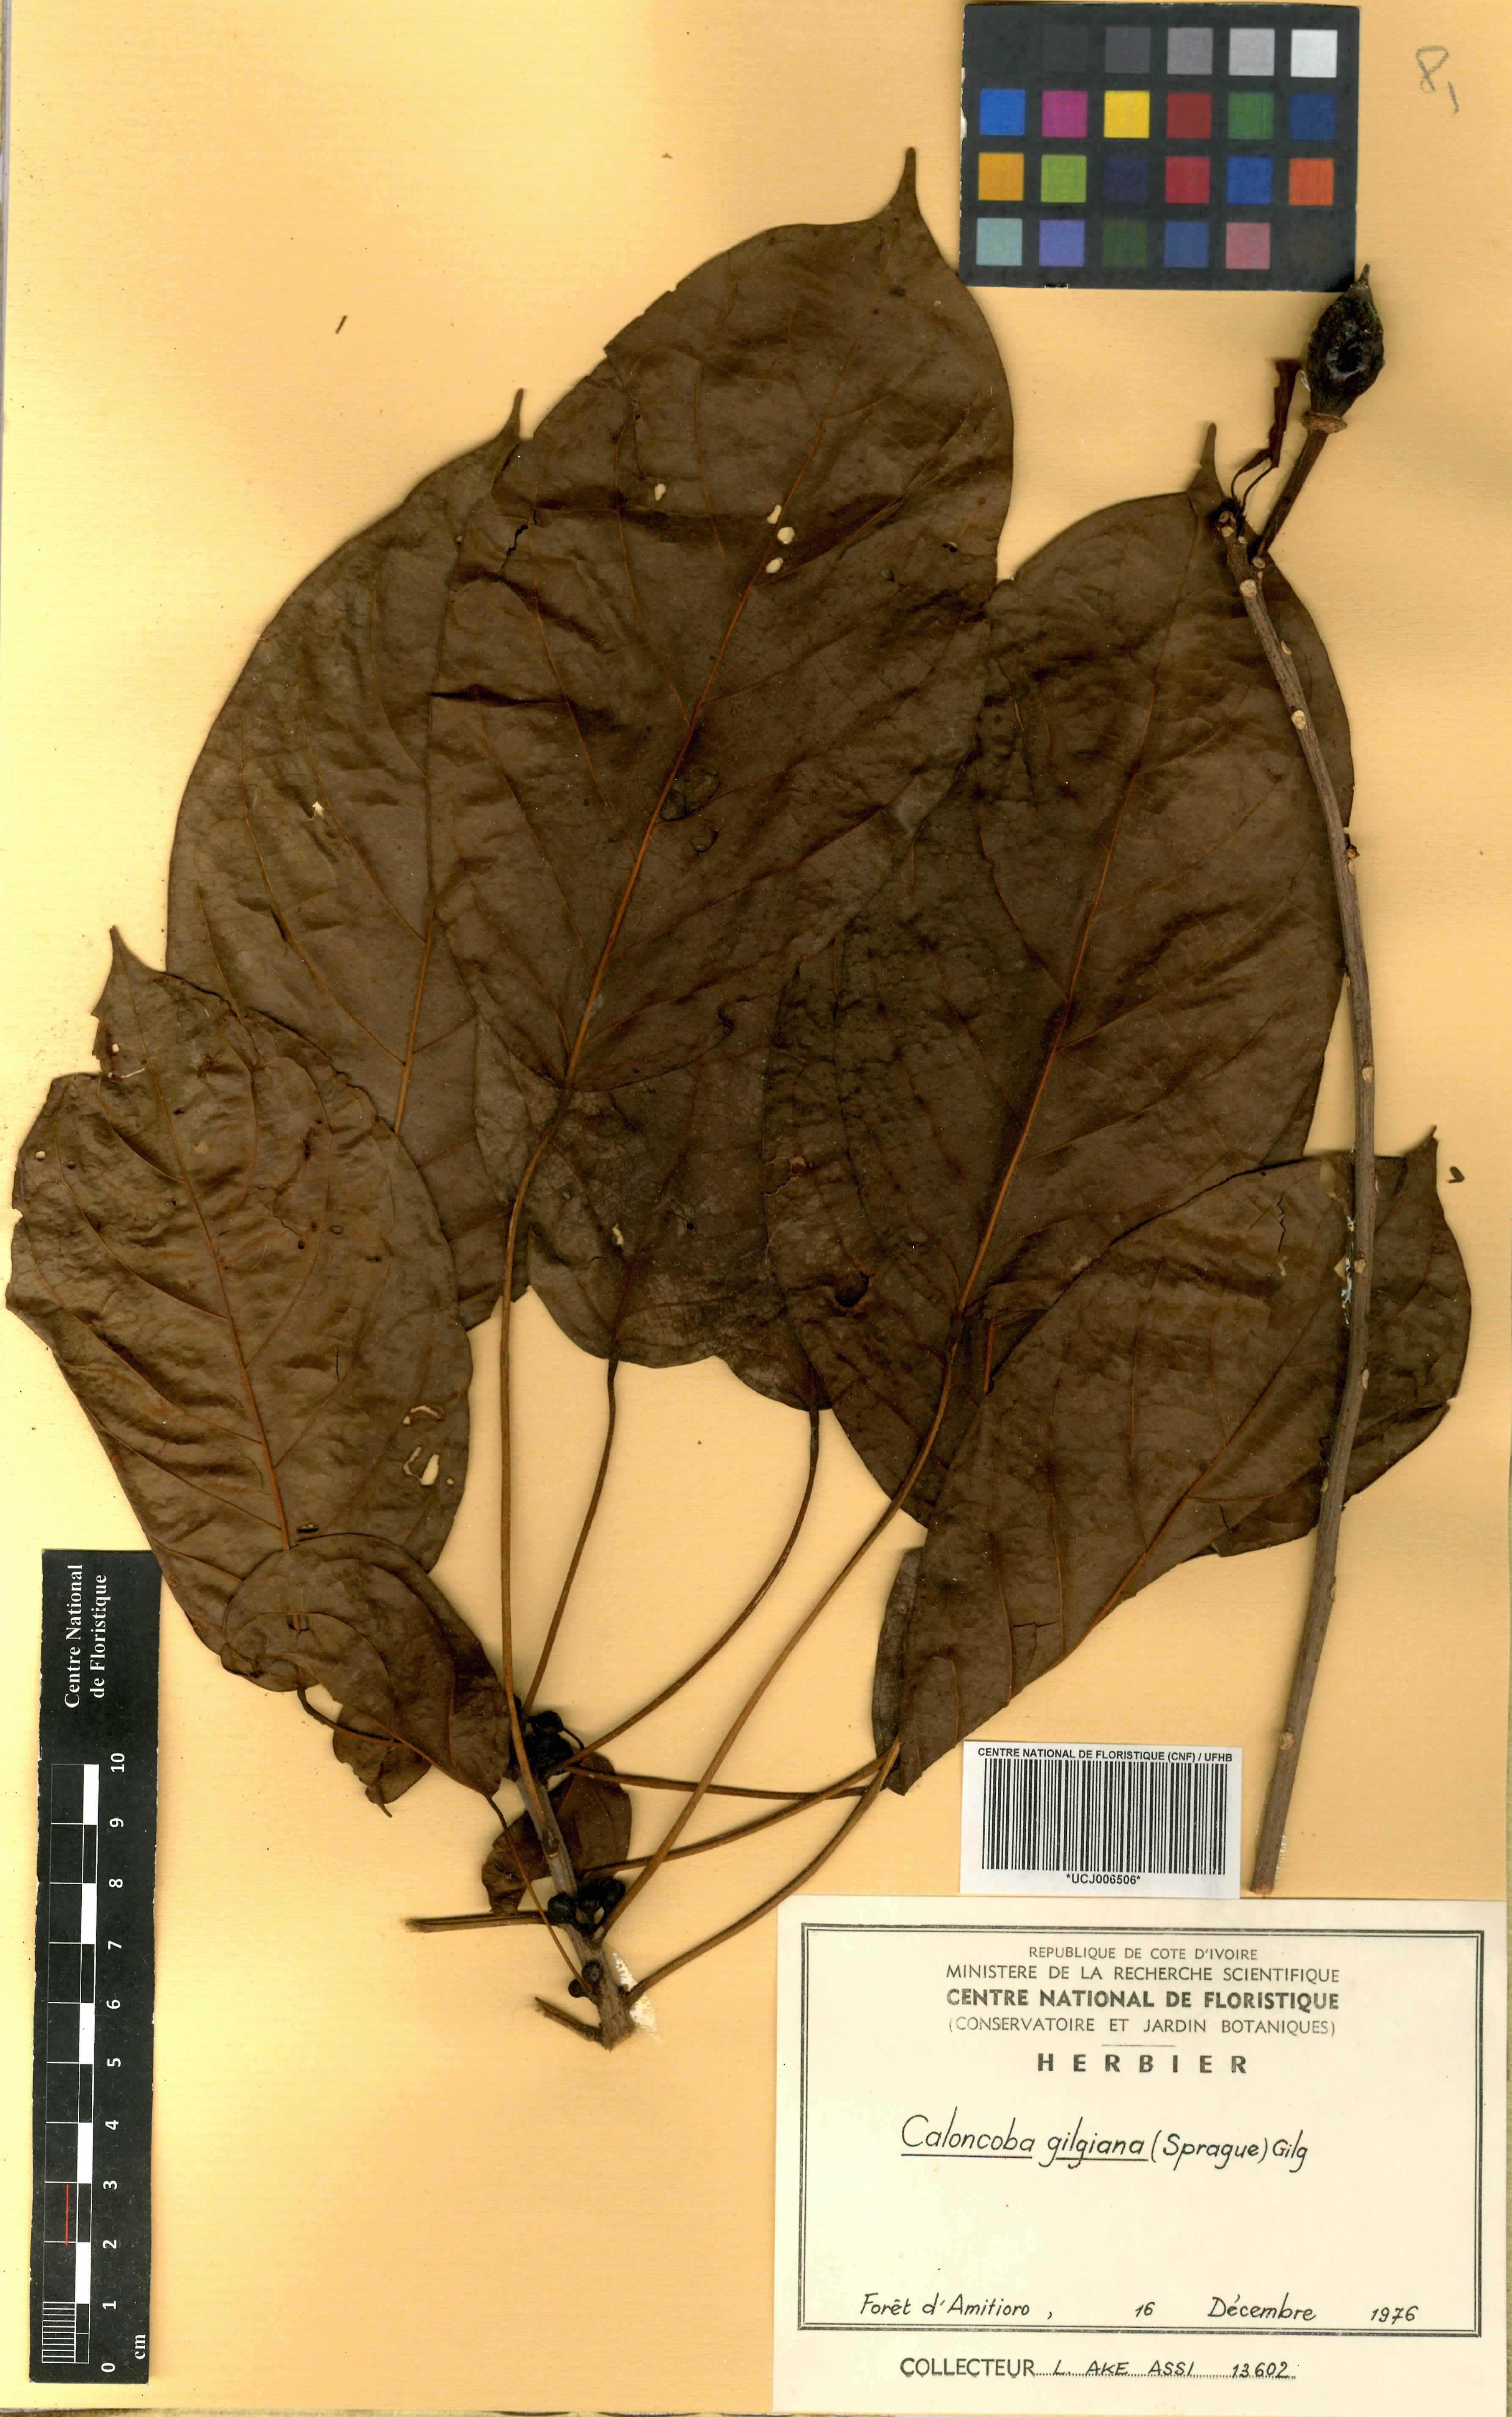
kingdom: Plantae
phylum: Tracheophyta
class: Magnoliopsida
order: Malpighiales
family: Achariaceae
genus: Caloncoba
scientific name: Caloncoba gilgiana
